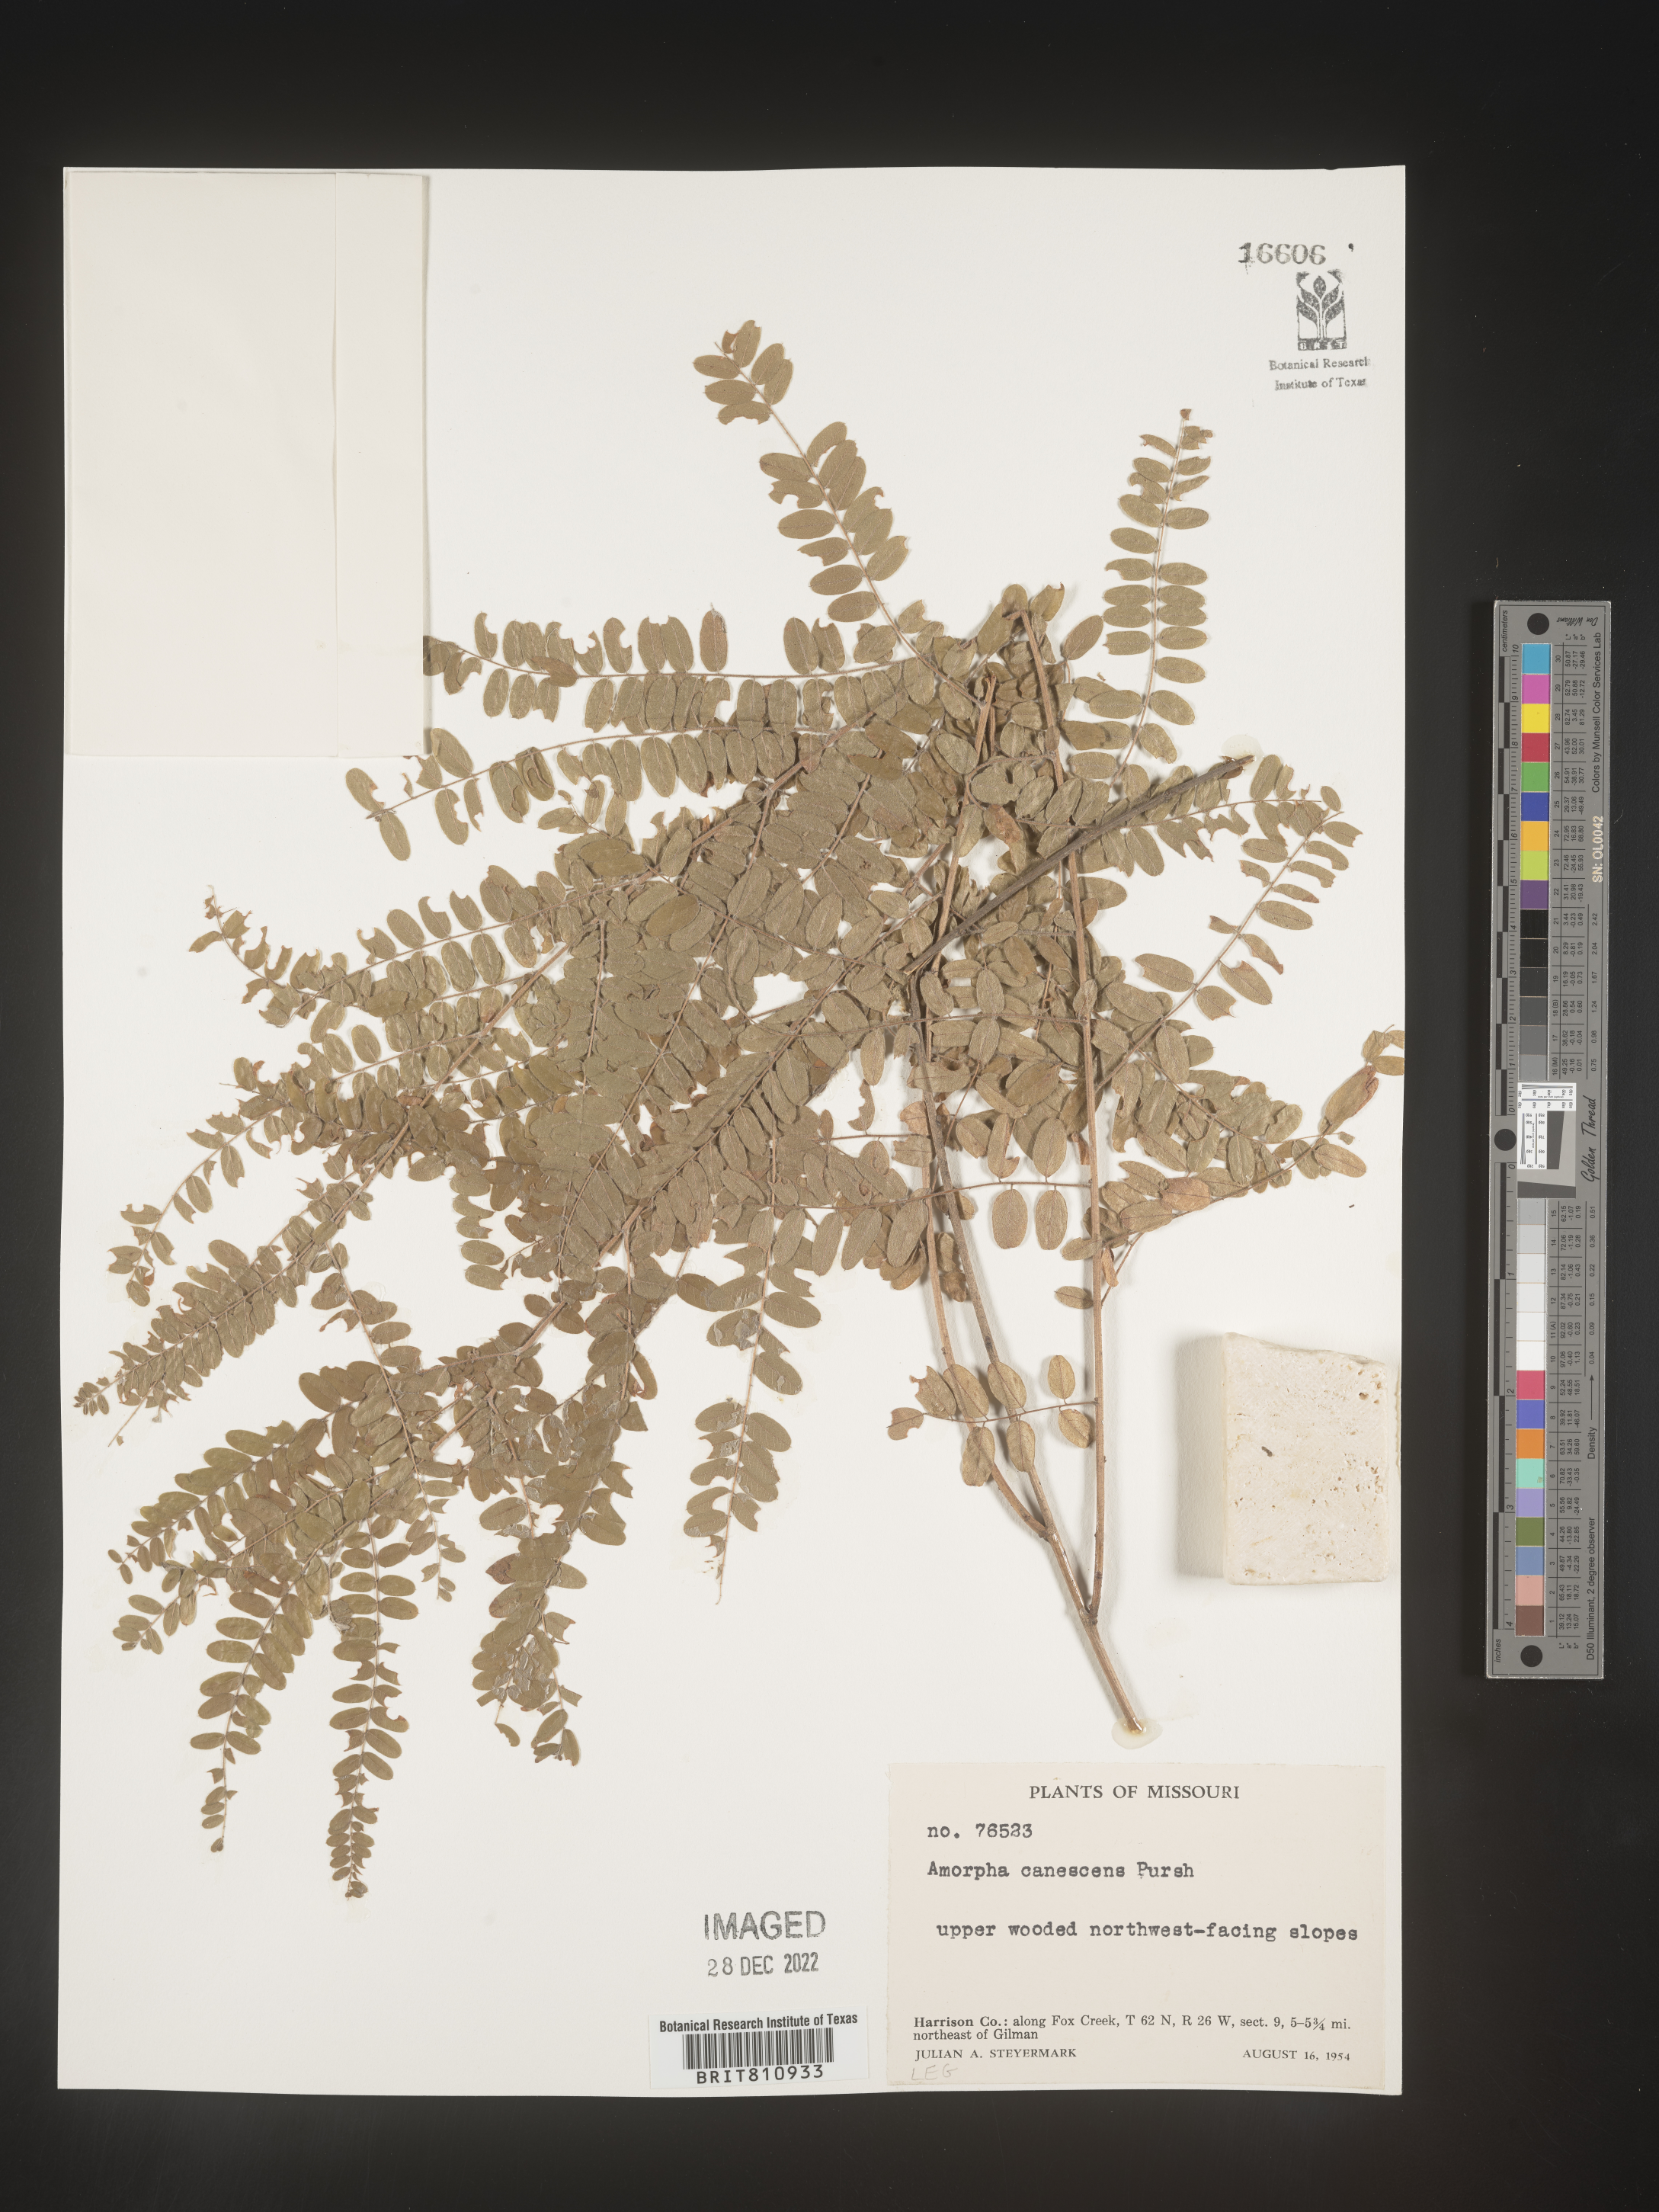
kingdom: Plantae
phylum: Tracheophyta
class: Magnoliopsida
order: Fabales
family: Fabaceae
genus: Amorpha
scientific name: Amorpha canescens
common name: Leadplant
